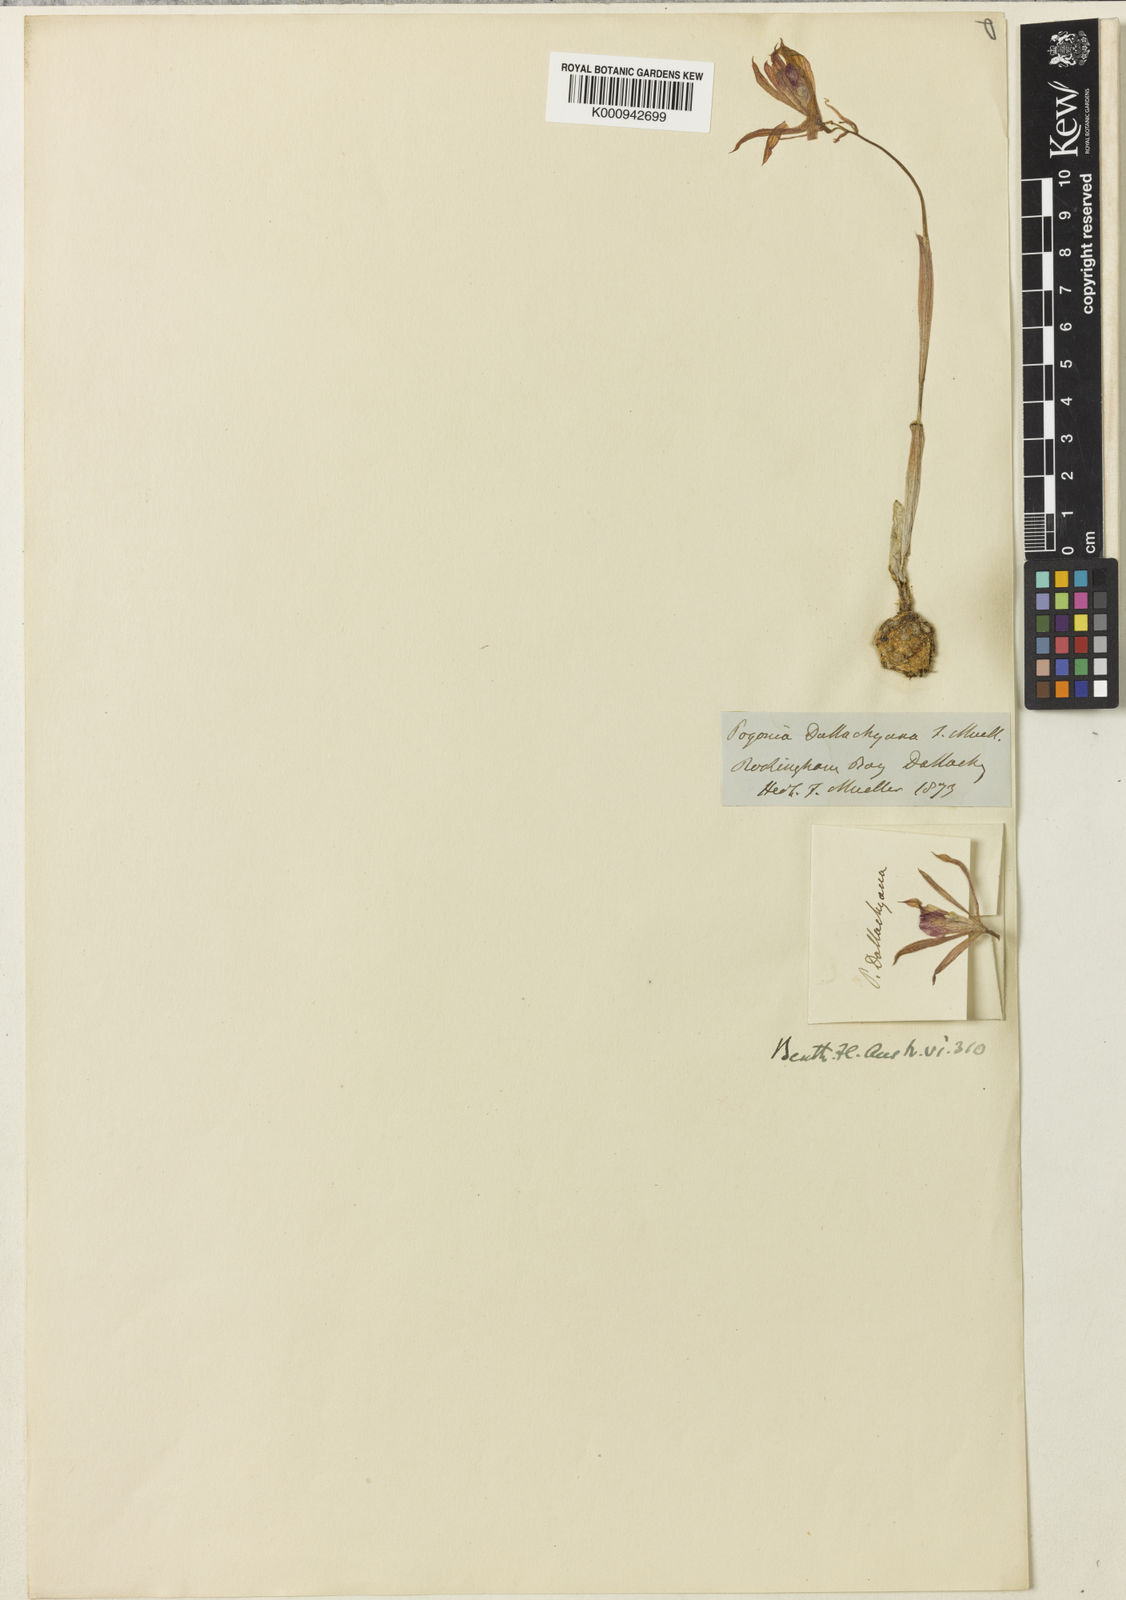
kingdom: Plantae
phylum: Tracheophyta
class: Liliopsida
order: Asparagales
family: Orchidaceae
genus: Nervilia
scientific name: Nervilia plicata
